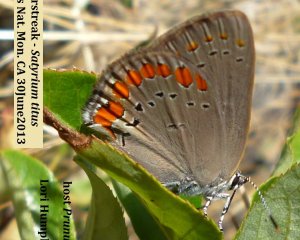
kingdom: Animalia
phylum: Arthropoda
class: Insecta
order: Lepidoptera
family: Lycaenidae
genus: Harkenclenus
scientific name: Harkenclenus titus
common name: Coral Hairstreak
